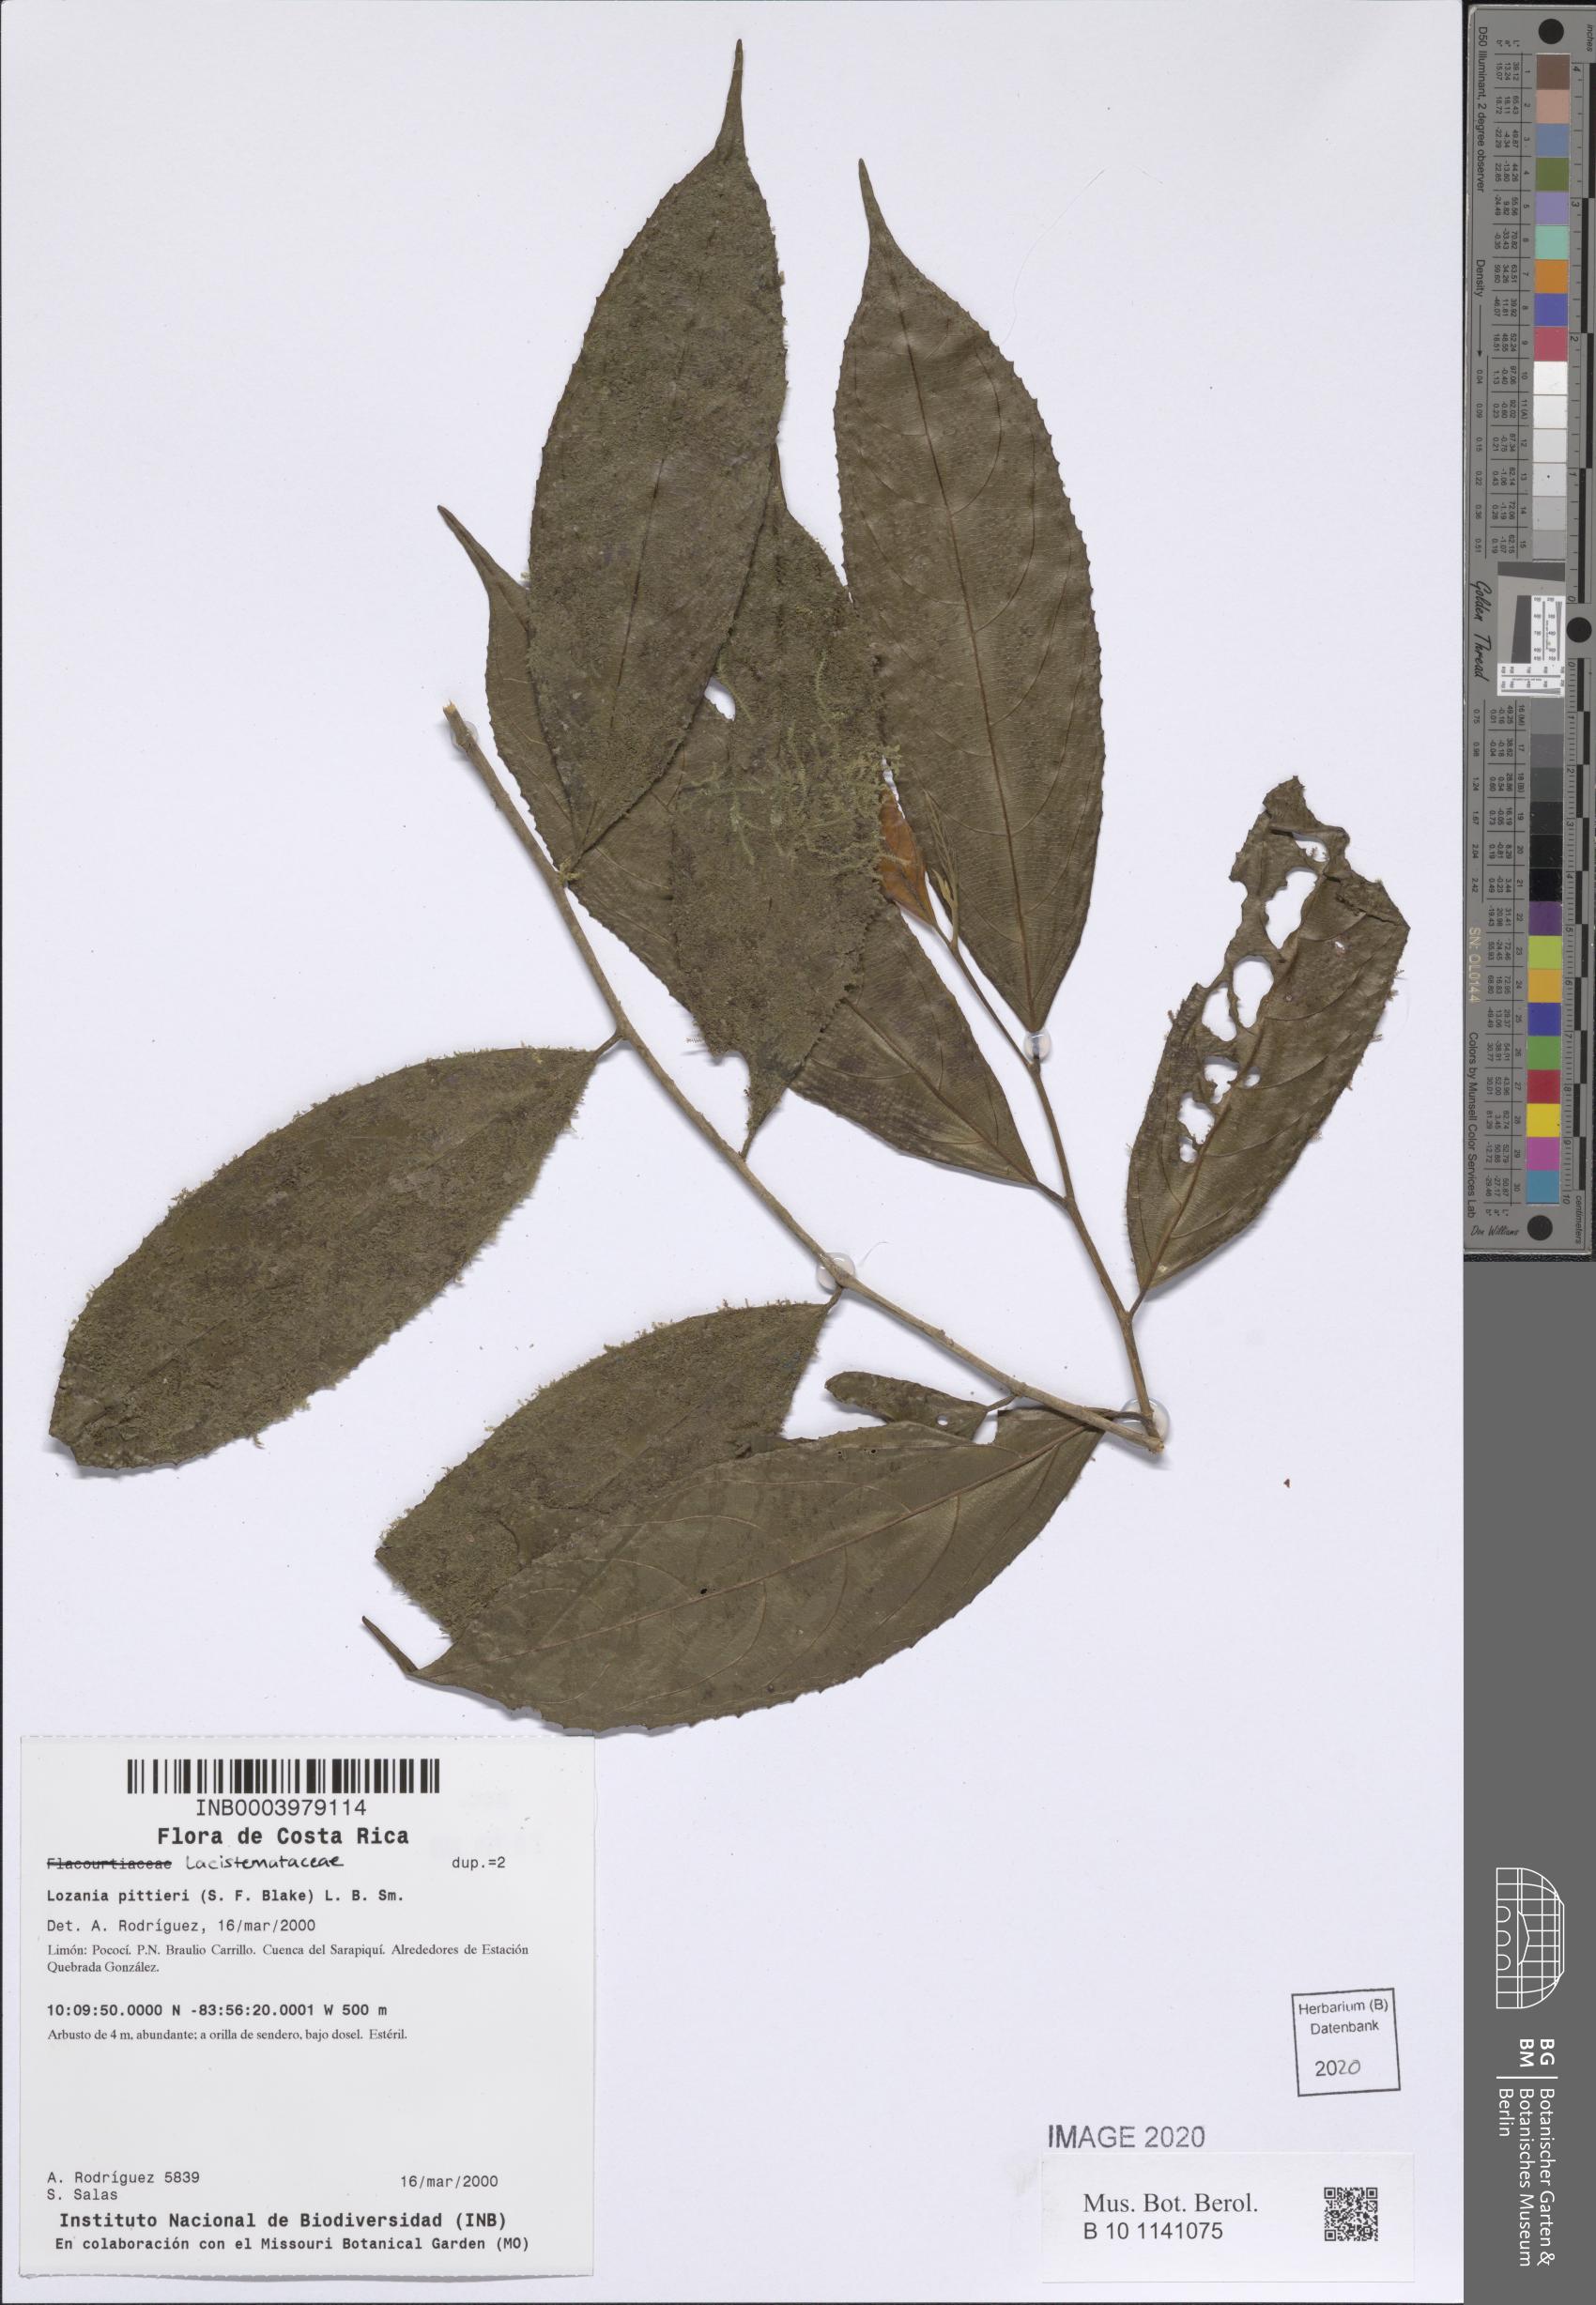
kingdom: Plantae
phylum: Tracheophyta
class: Magnoliopsida
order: Malpighiales
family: Lacistemataceae
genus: Lozania
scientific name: Lozania pittieri
